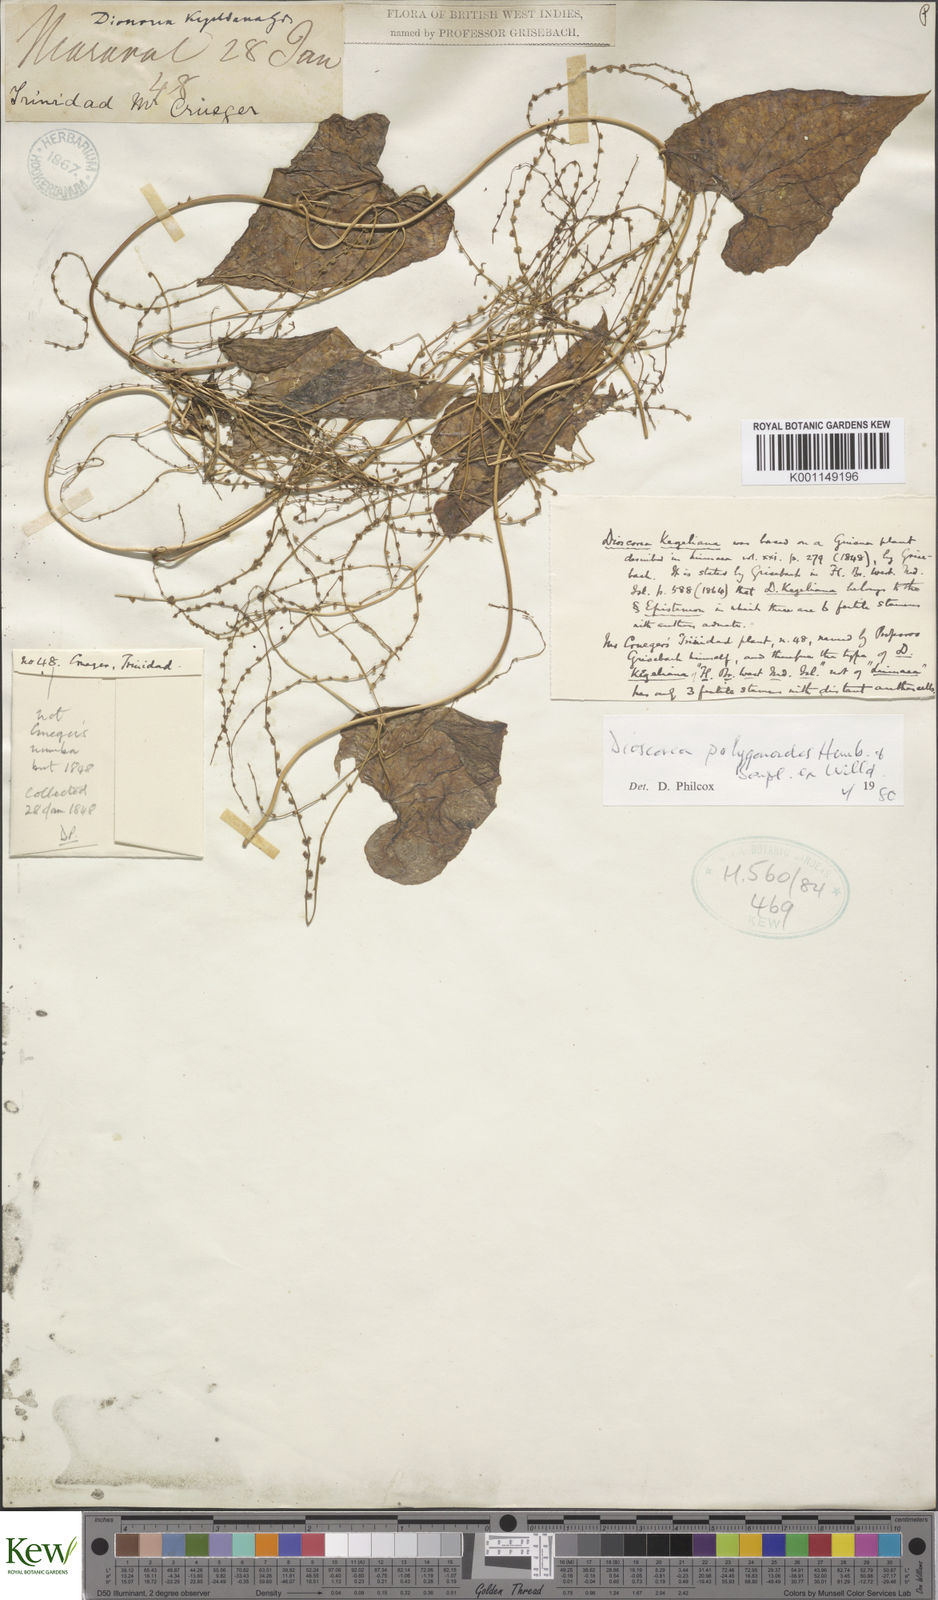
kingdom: Plantae
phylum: Tracheophyta
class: Liliopsida
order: Dioscoreales
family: Dioscoreaceae
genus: Dioscorea
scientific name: Dioscorea polygonoides
